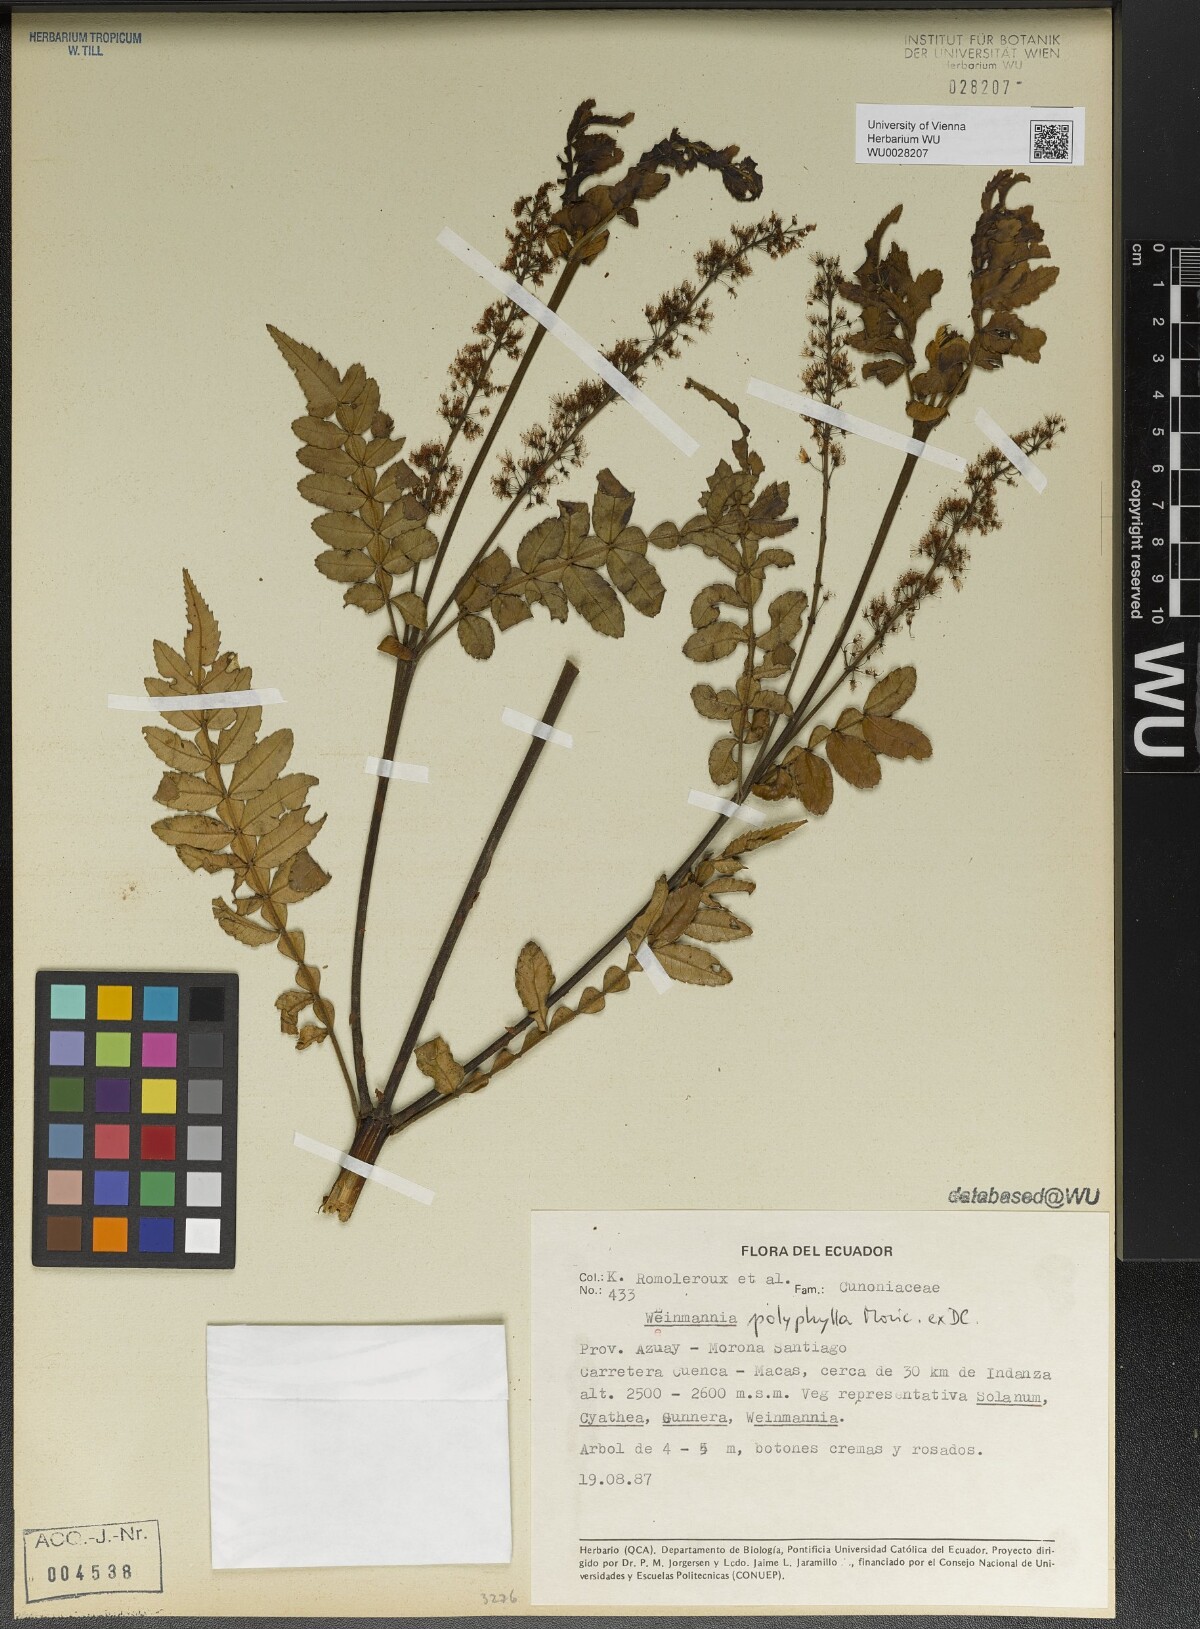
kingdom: Plantae
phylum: Tracheophyta
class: Magnoliopsida
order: Oxalidales
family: Cunoniaceae
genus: Weinmannia
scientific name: Weinmannia polyphylla
